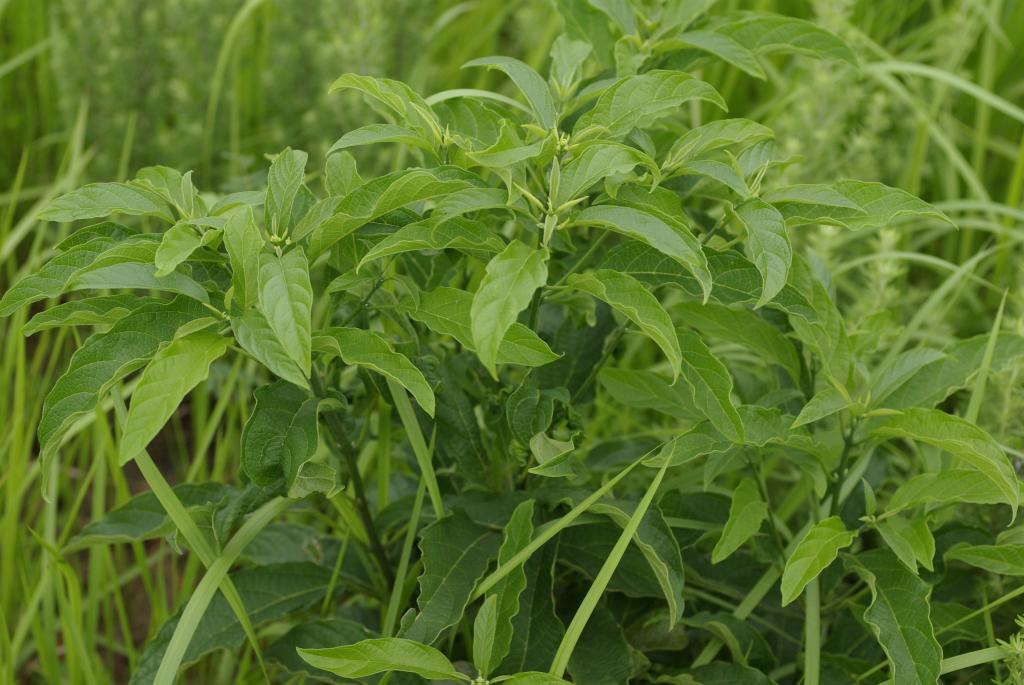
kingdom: Plantae
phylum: Tracheophyta
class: Magnoliopsida
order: Lamiales
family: Lamiaceae
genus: Clerodendrum
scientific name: Clerodendrum cyrtophyllum
